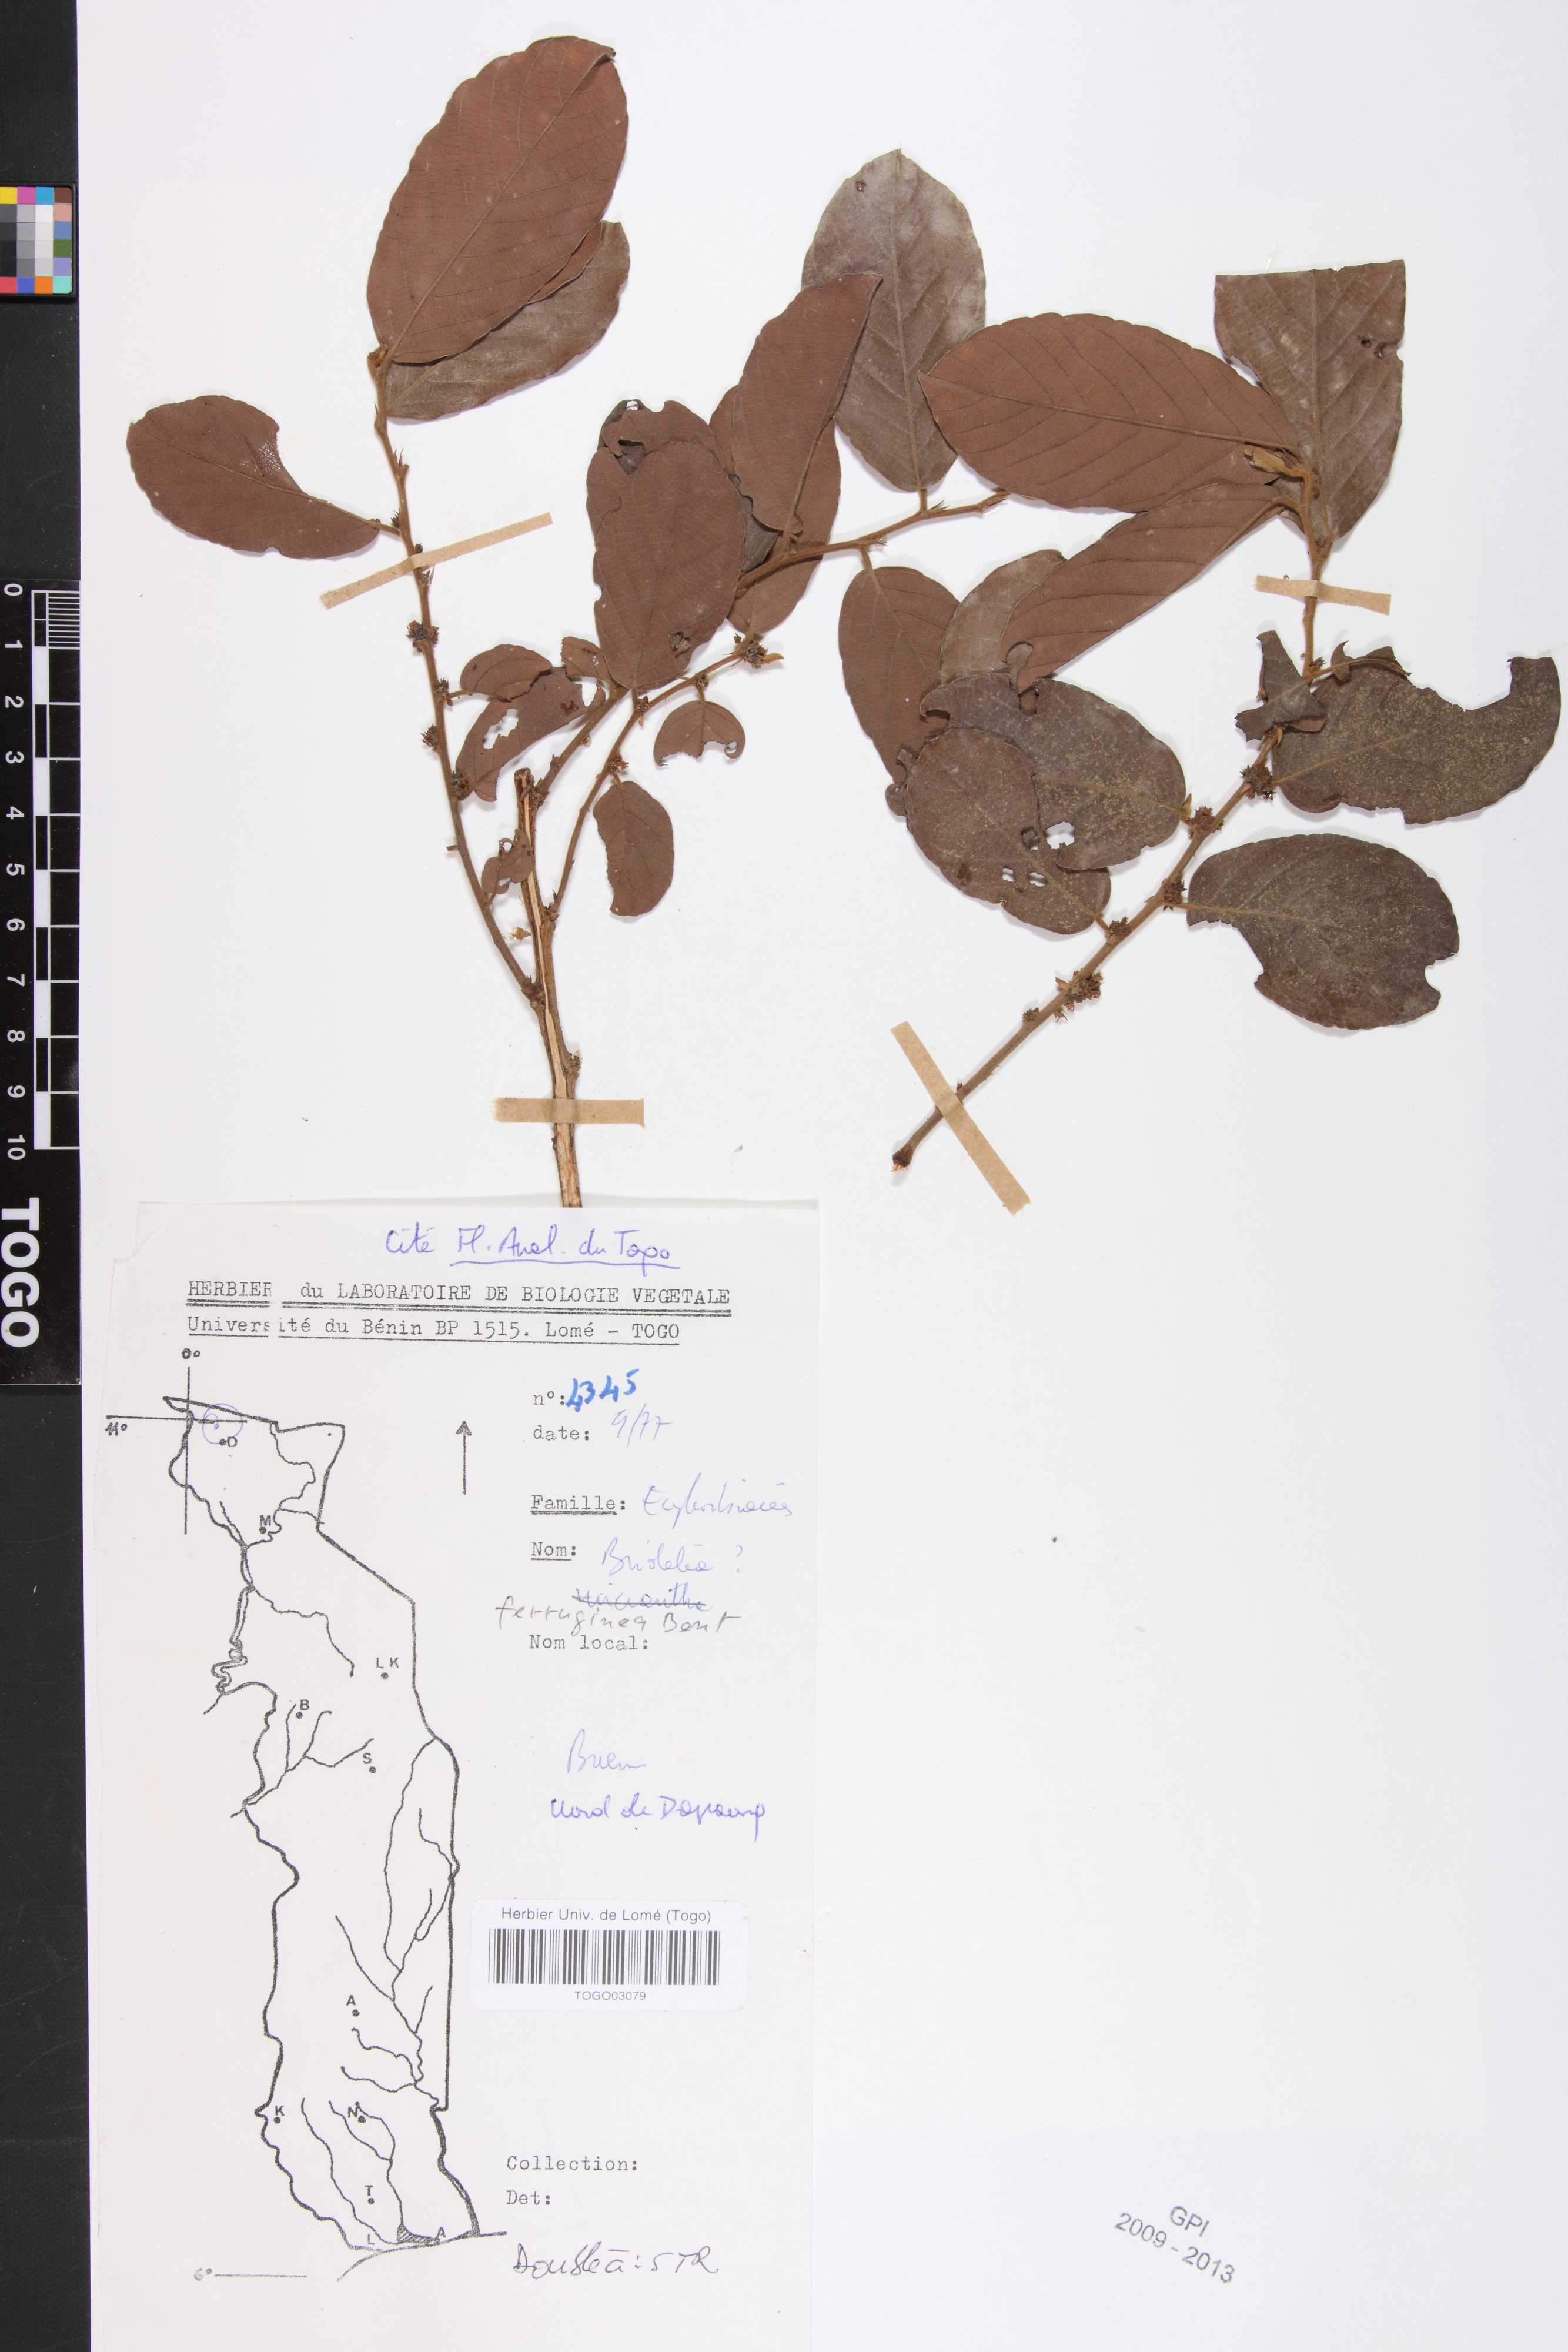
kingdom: Plantae
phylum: Tracheophyta
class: Magnoliopsida
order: Malpighiales
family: Phyllanthaceae
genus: Bridelia
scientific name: Bridelia ferruginea
